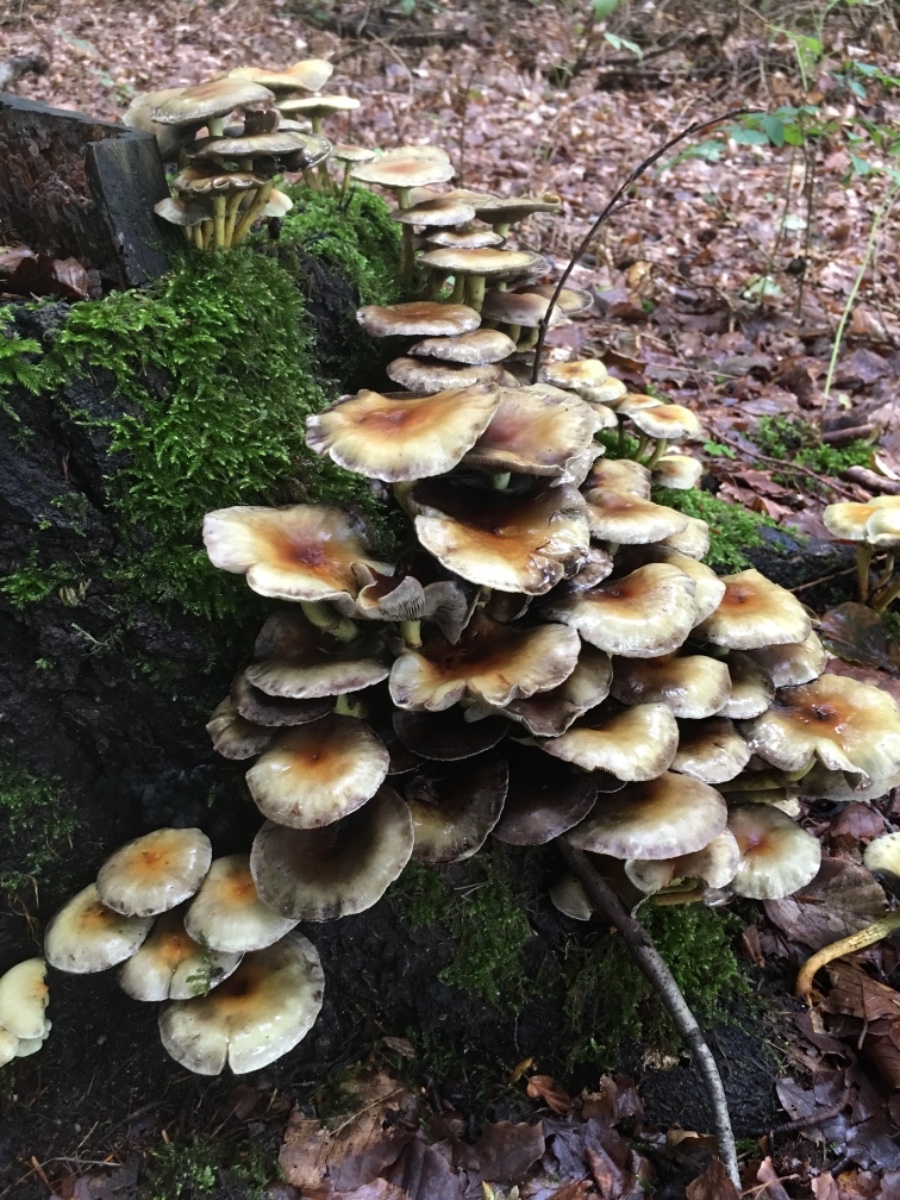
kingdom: Fungi
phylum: Basidiomycota
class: Agaricomycetes
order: Agaricales
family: Strophariaceae
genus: Hypholoma
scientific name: Hypholoma fasciculare
